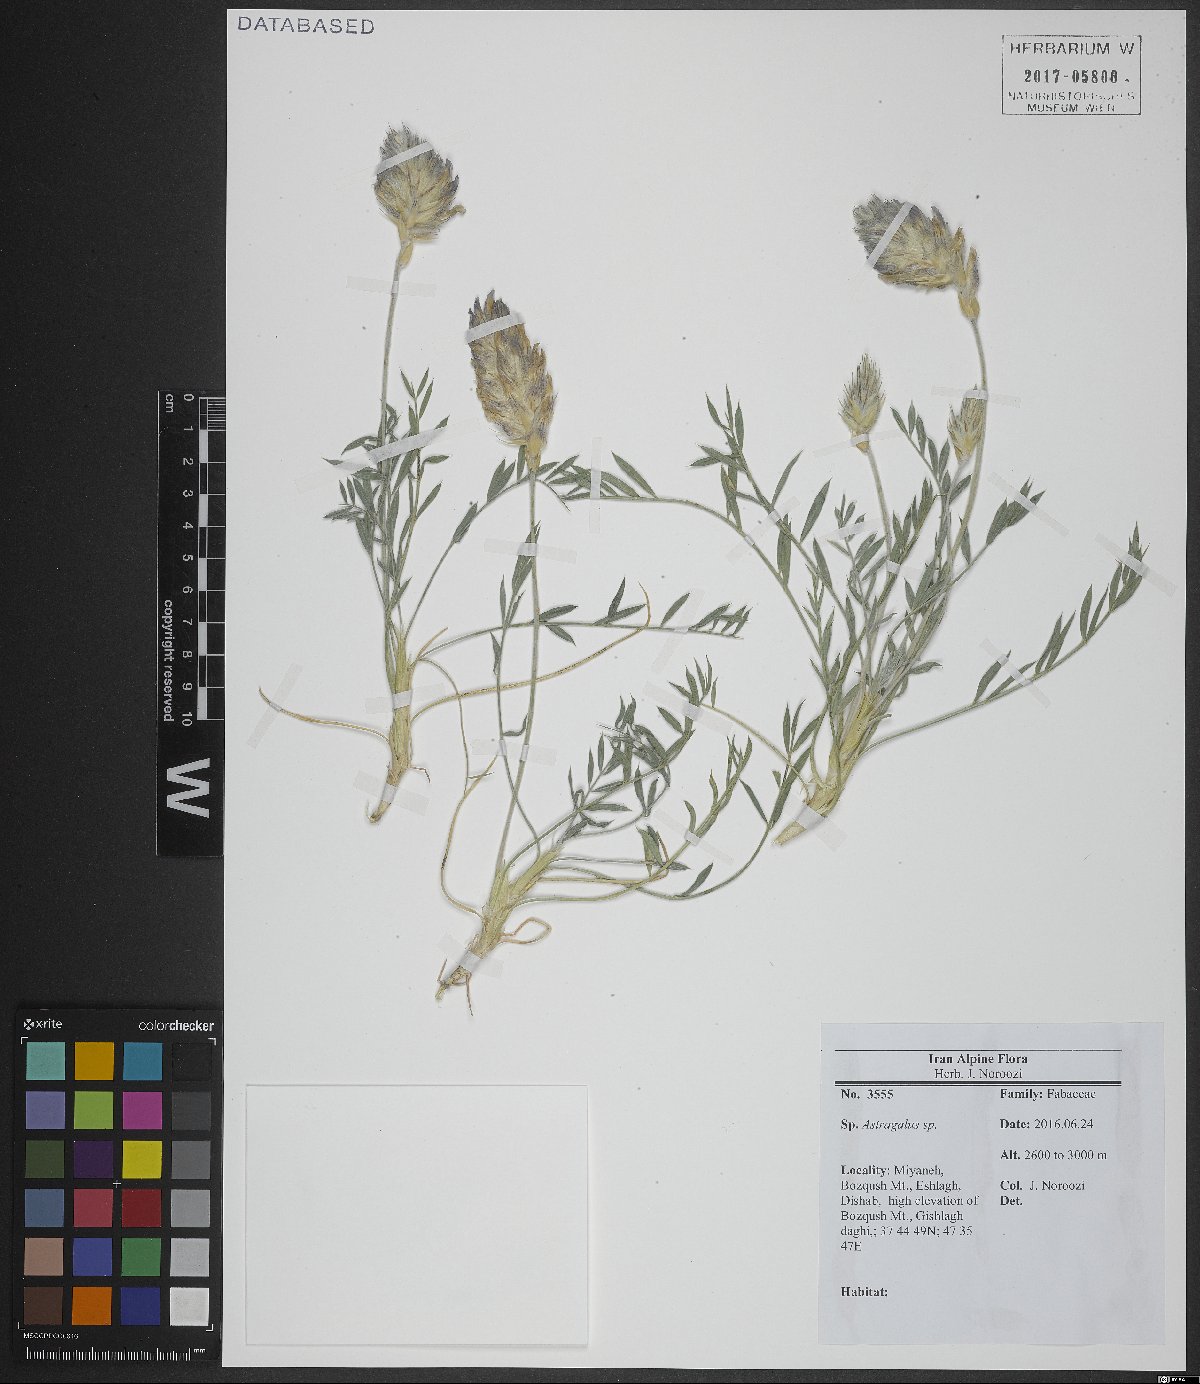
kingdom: Plantae
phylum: Tracheophyta
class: Magnoliopsida
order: Fabales
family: Fabaceae
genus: Astragalus
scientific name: Astragalus
